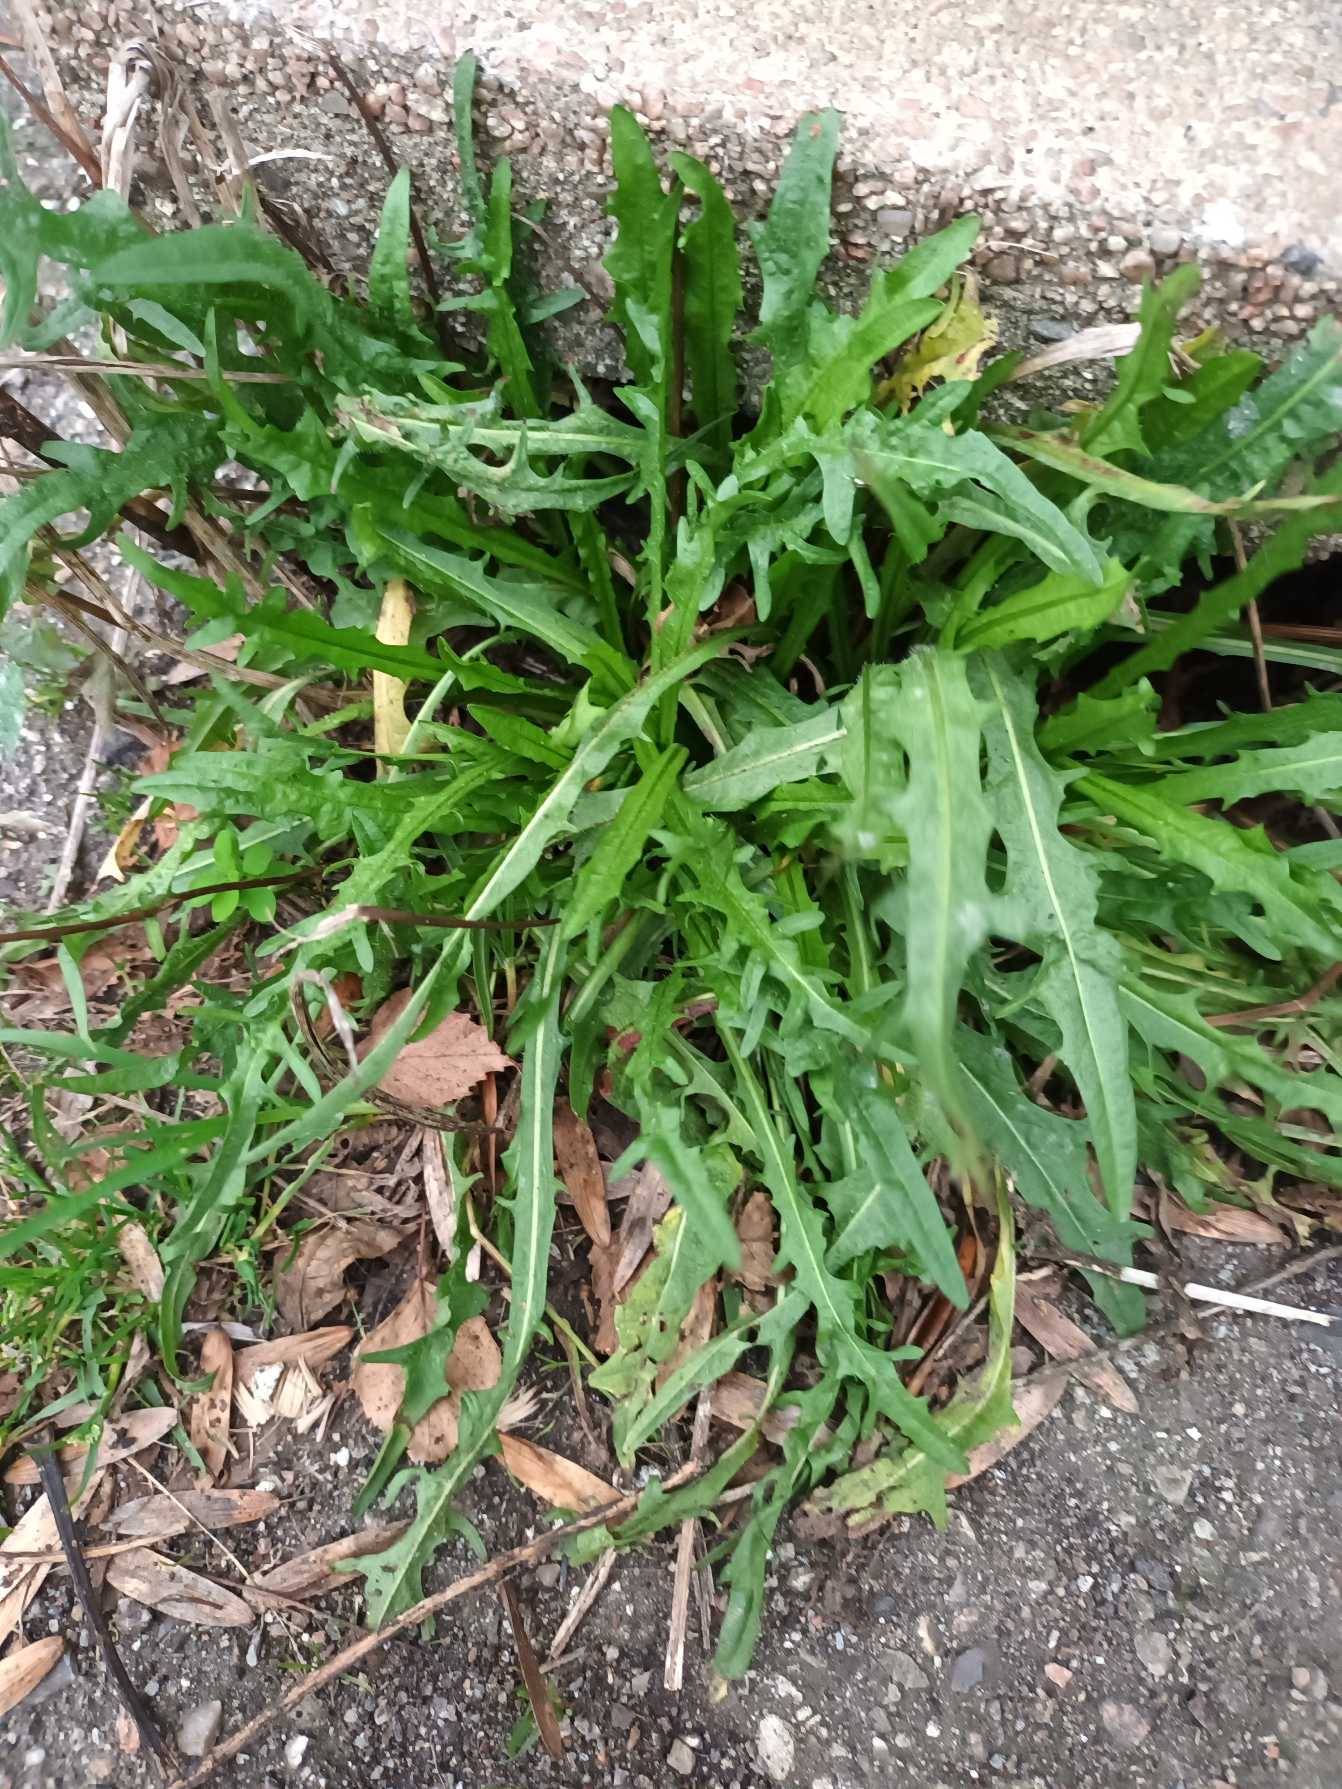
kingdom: Plantae
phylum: Tracheophyta
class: Magnoliopsida
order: Asterales
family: Asteraceae
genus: Scorzoneroides
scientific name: Scorzoneroides autumnalis
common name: Høst-borst
